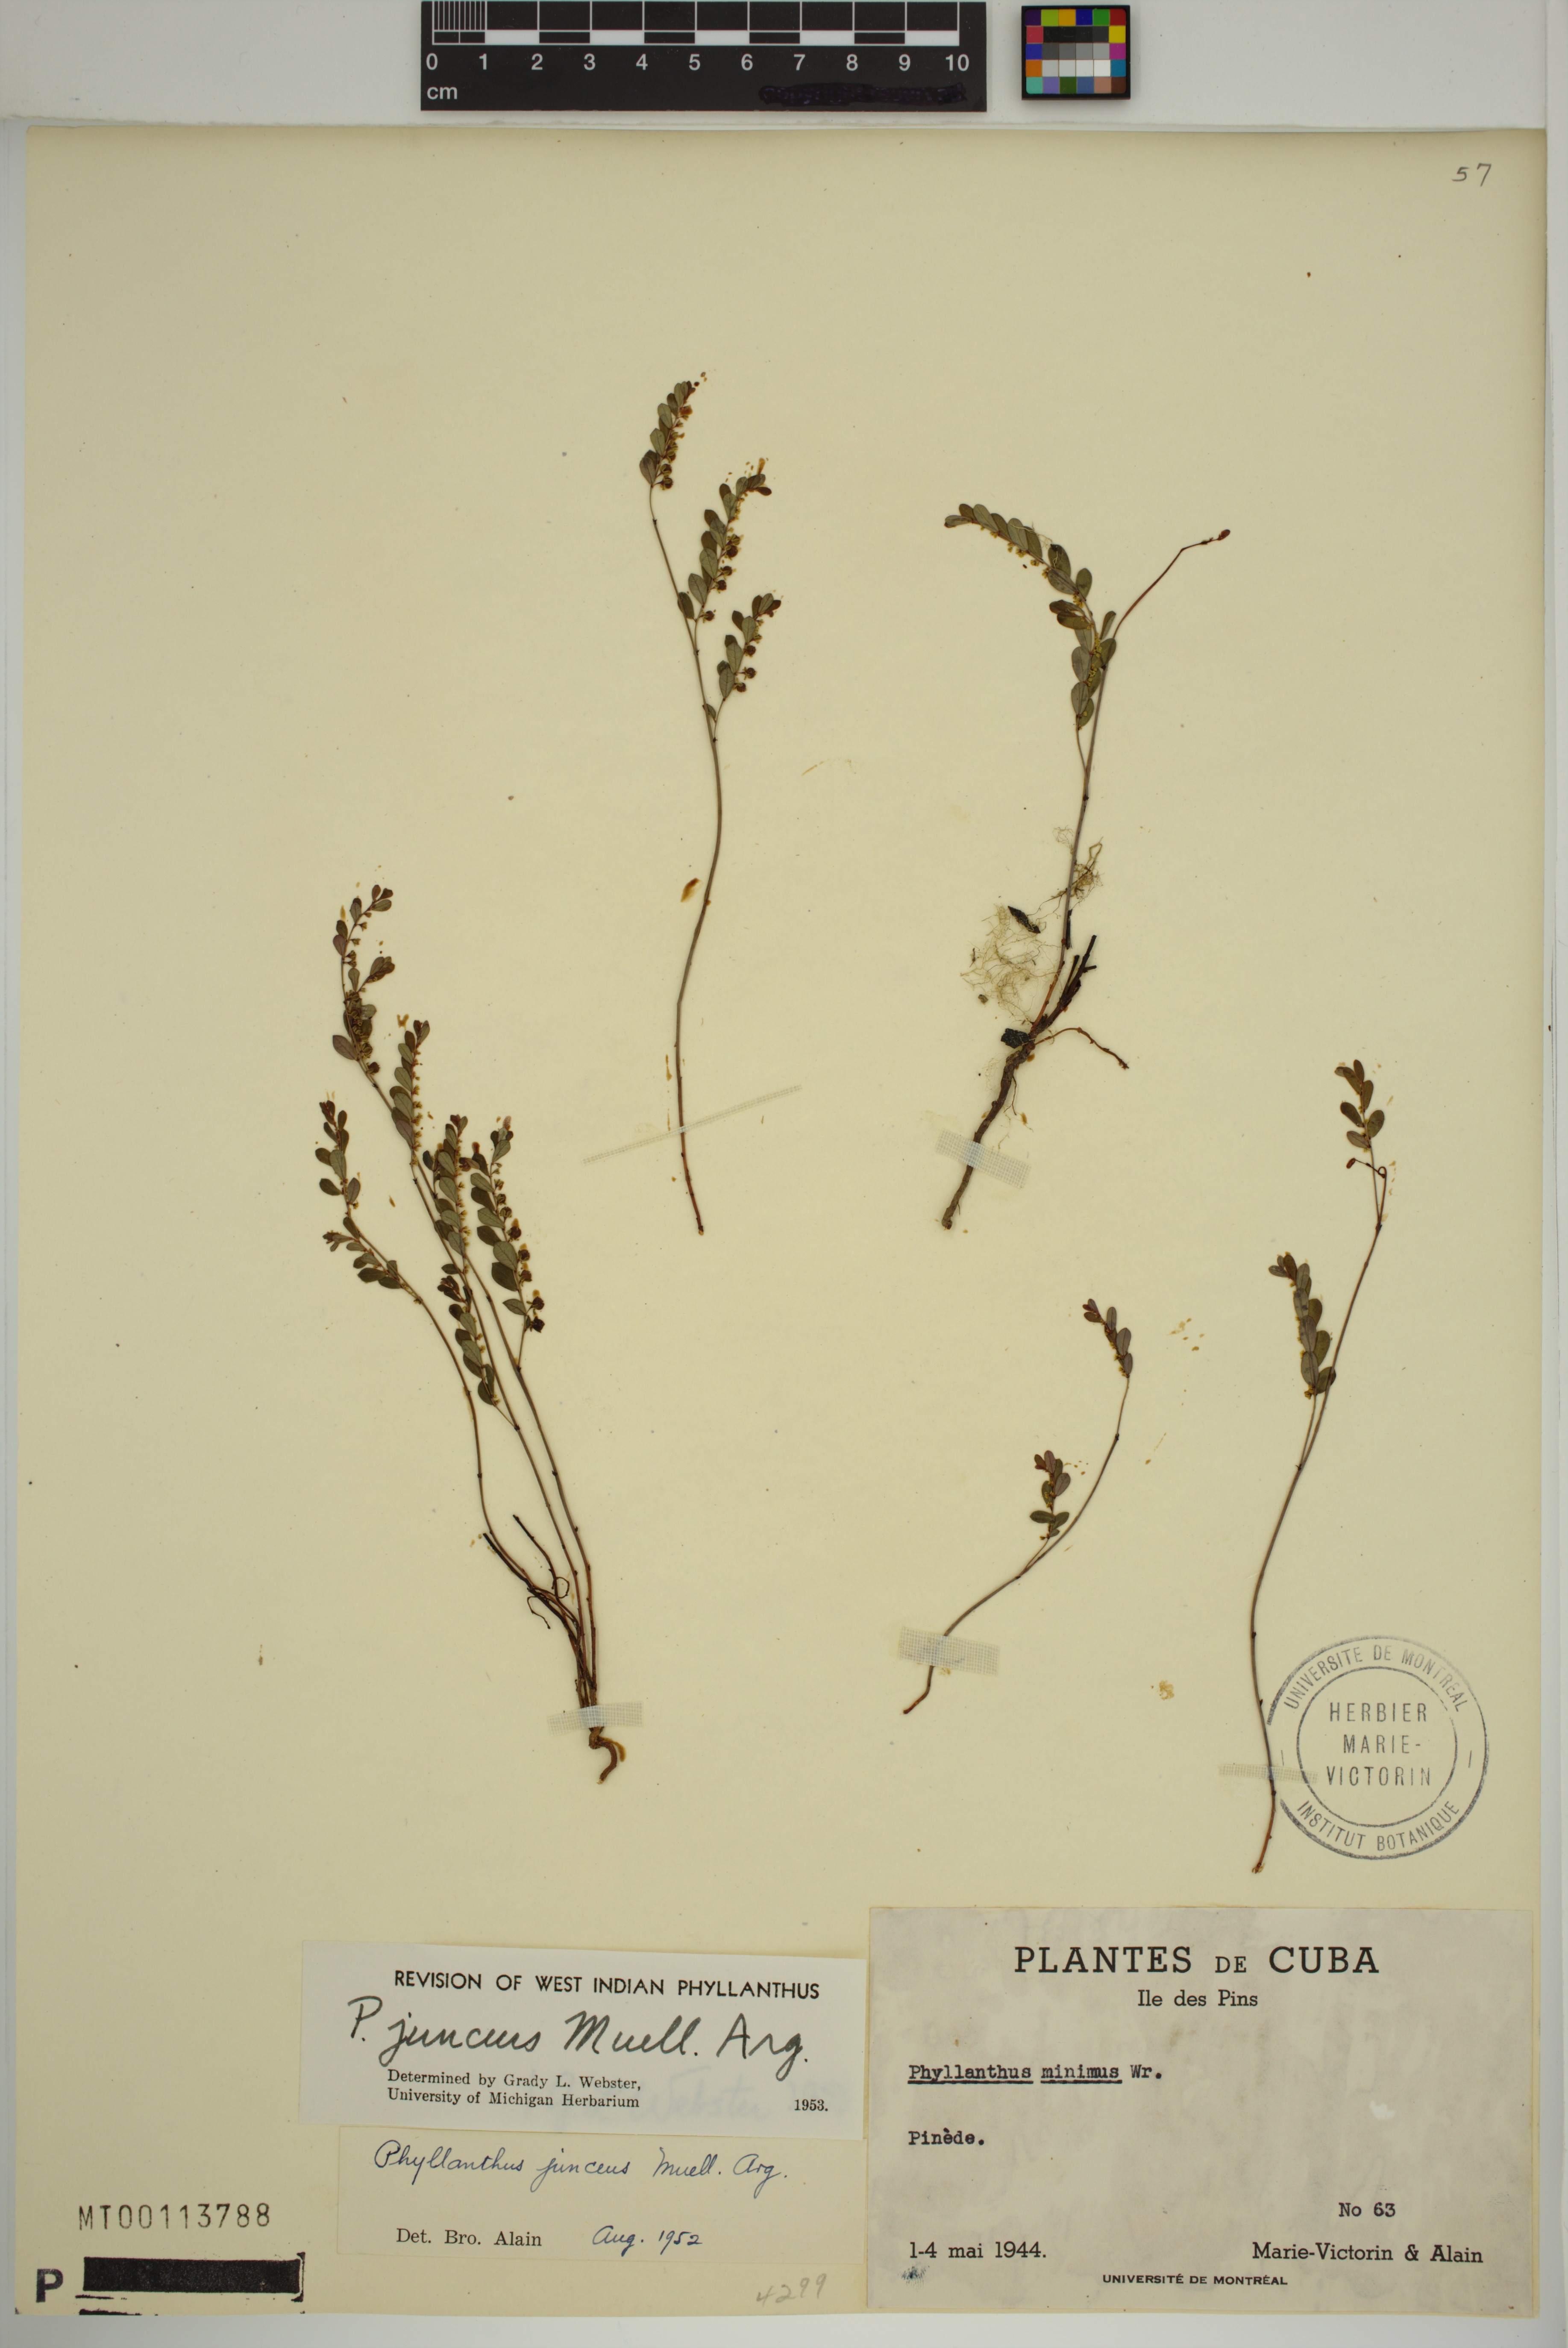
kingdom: Plantae
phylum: Tracheophyta
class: Magnoliopsida
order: Malpighiales
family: Phyllanthaceae
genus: Phyllanthus
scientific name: Phyllanthus junceus
